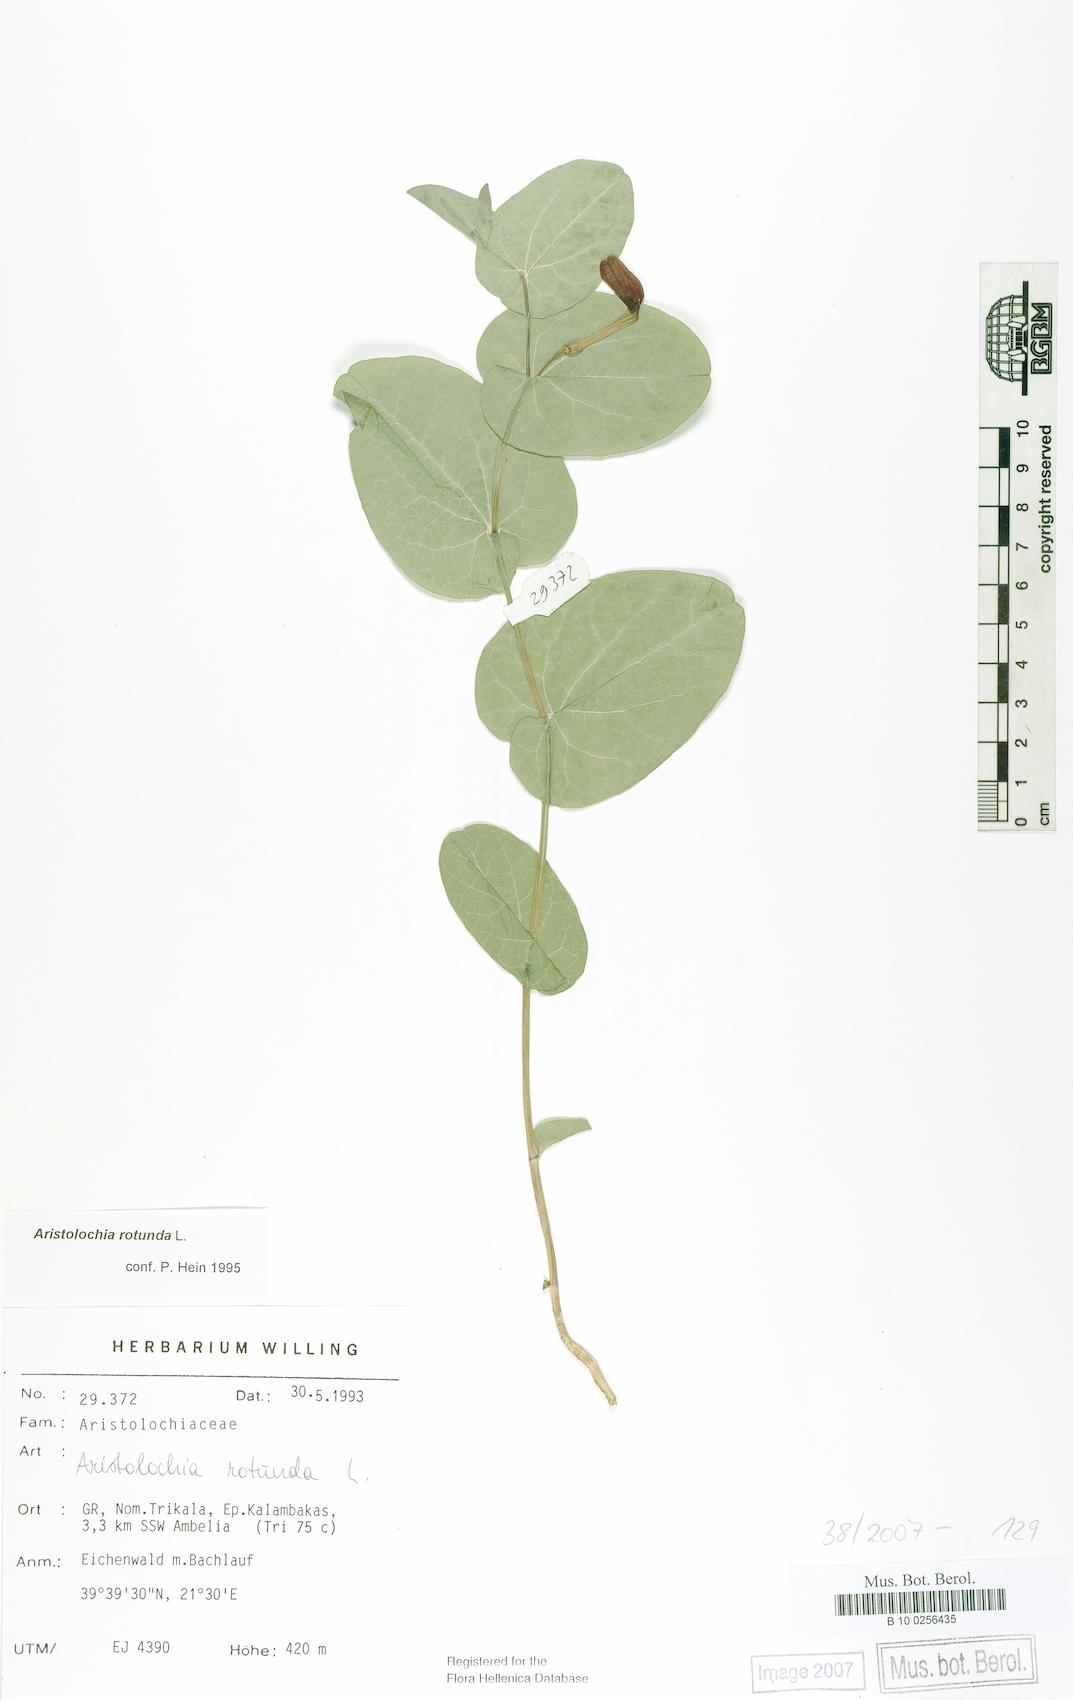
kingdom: Plantae
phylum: Tracheophyta
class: Magnoliopsida
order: Piperales
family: Aristolochiaceae
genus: Aristolochia
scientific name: Aristolochia rotunda
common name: Smearwort
